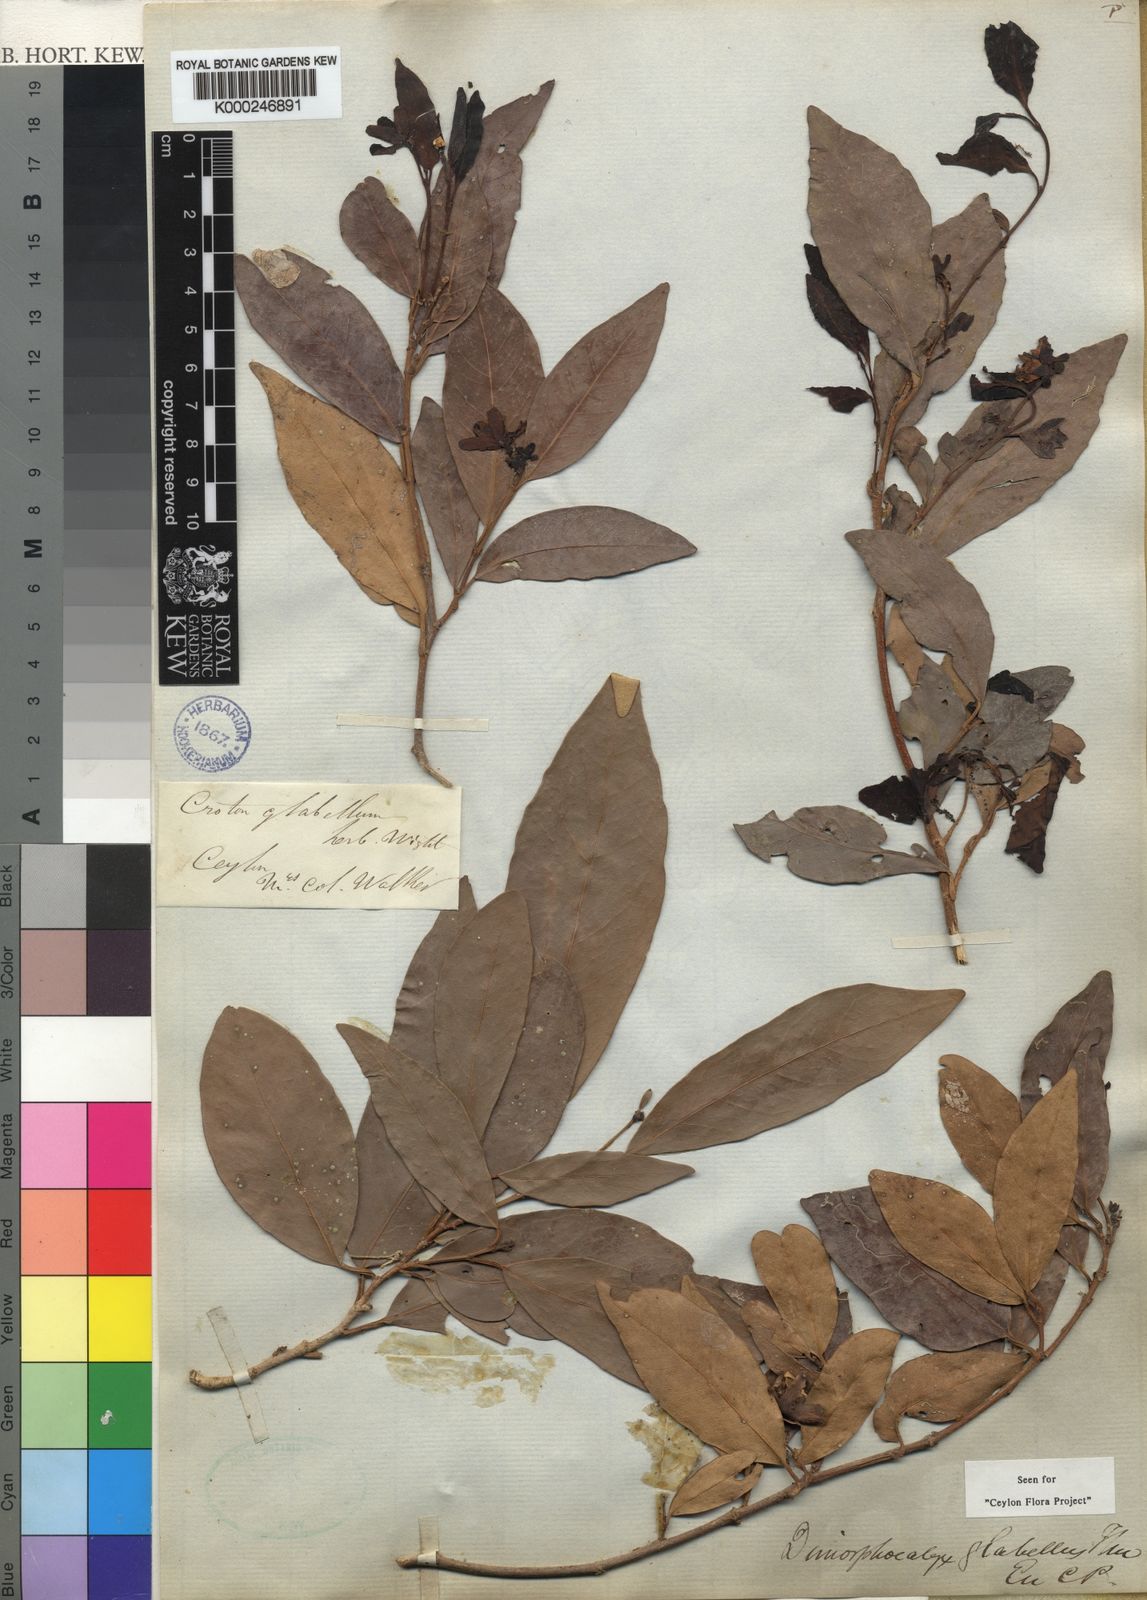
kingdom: Plantae
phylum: Tracheophyta
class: Magnoliopsida
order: Malpighiales
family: Euphorbiaceae
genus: Tritaxis
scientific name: Tritaxis glabella
